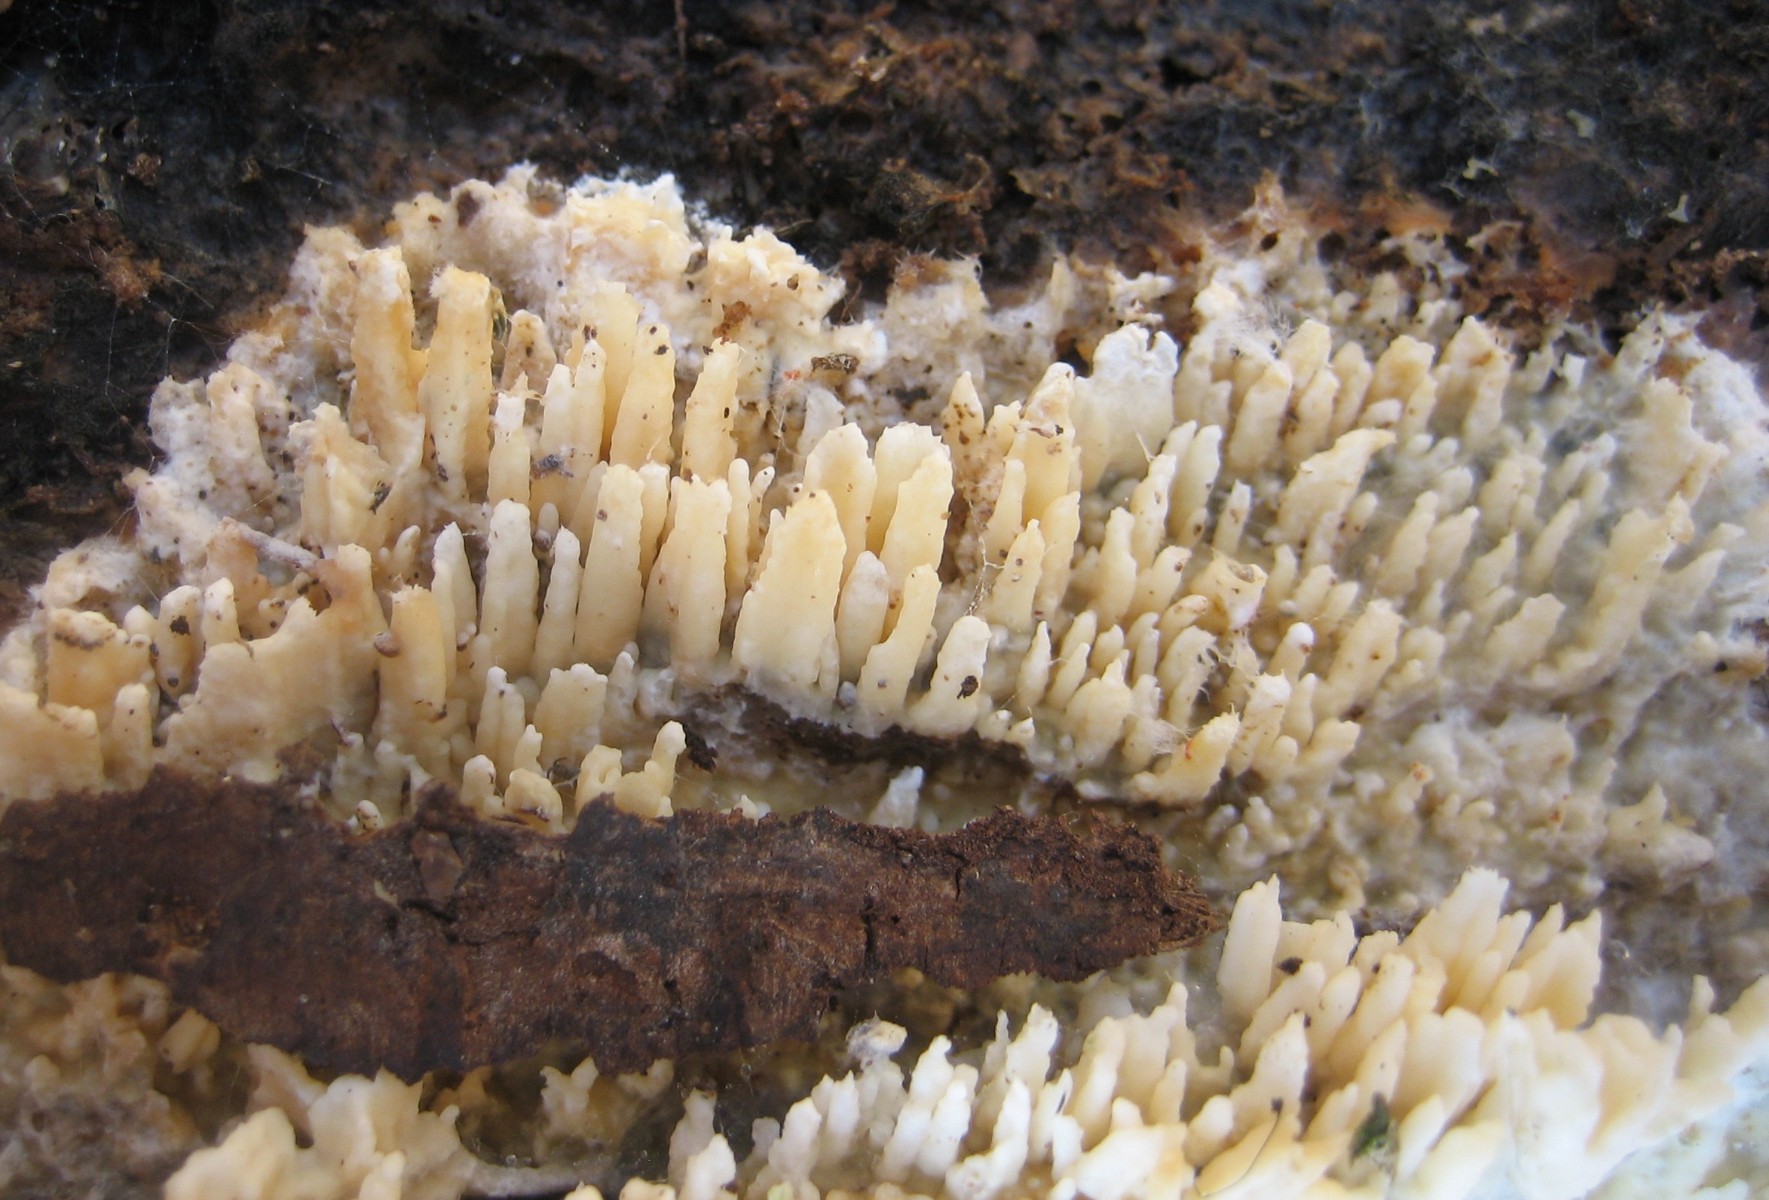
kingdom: Fungi
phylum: Basidiomycota
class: Agaricomycetes
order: Hymenochaetales
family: Schizoporaceae
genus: Xylodon
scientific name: Xylodon radula
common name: grovtandet kalkskind
